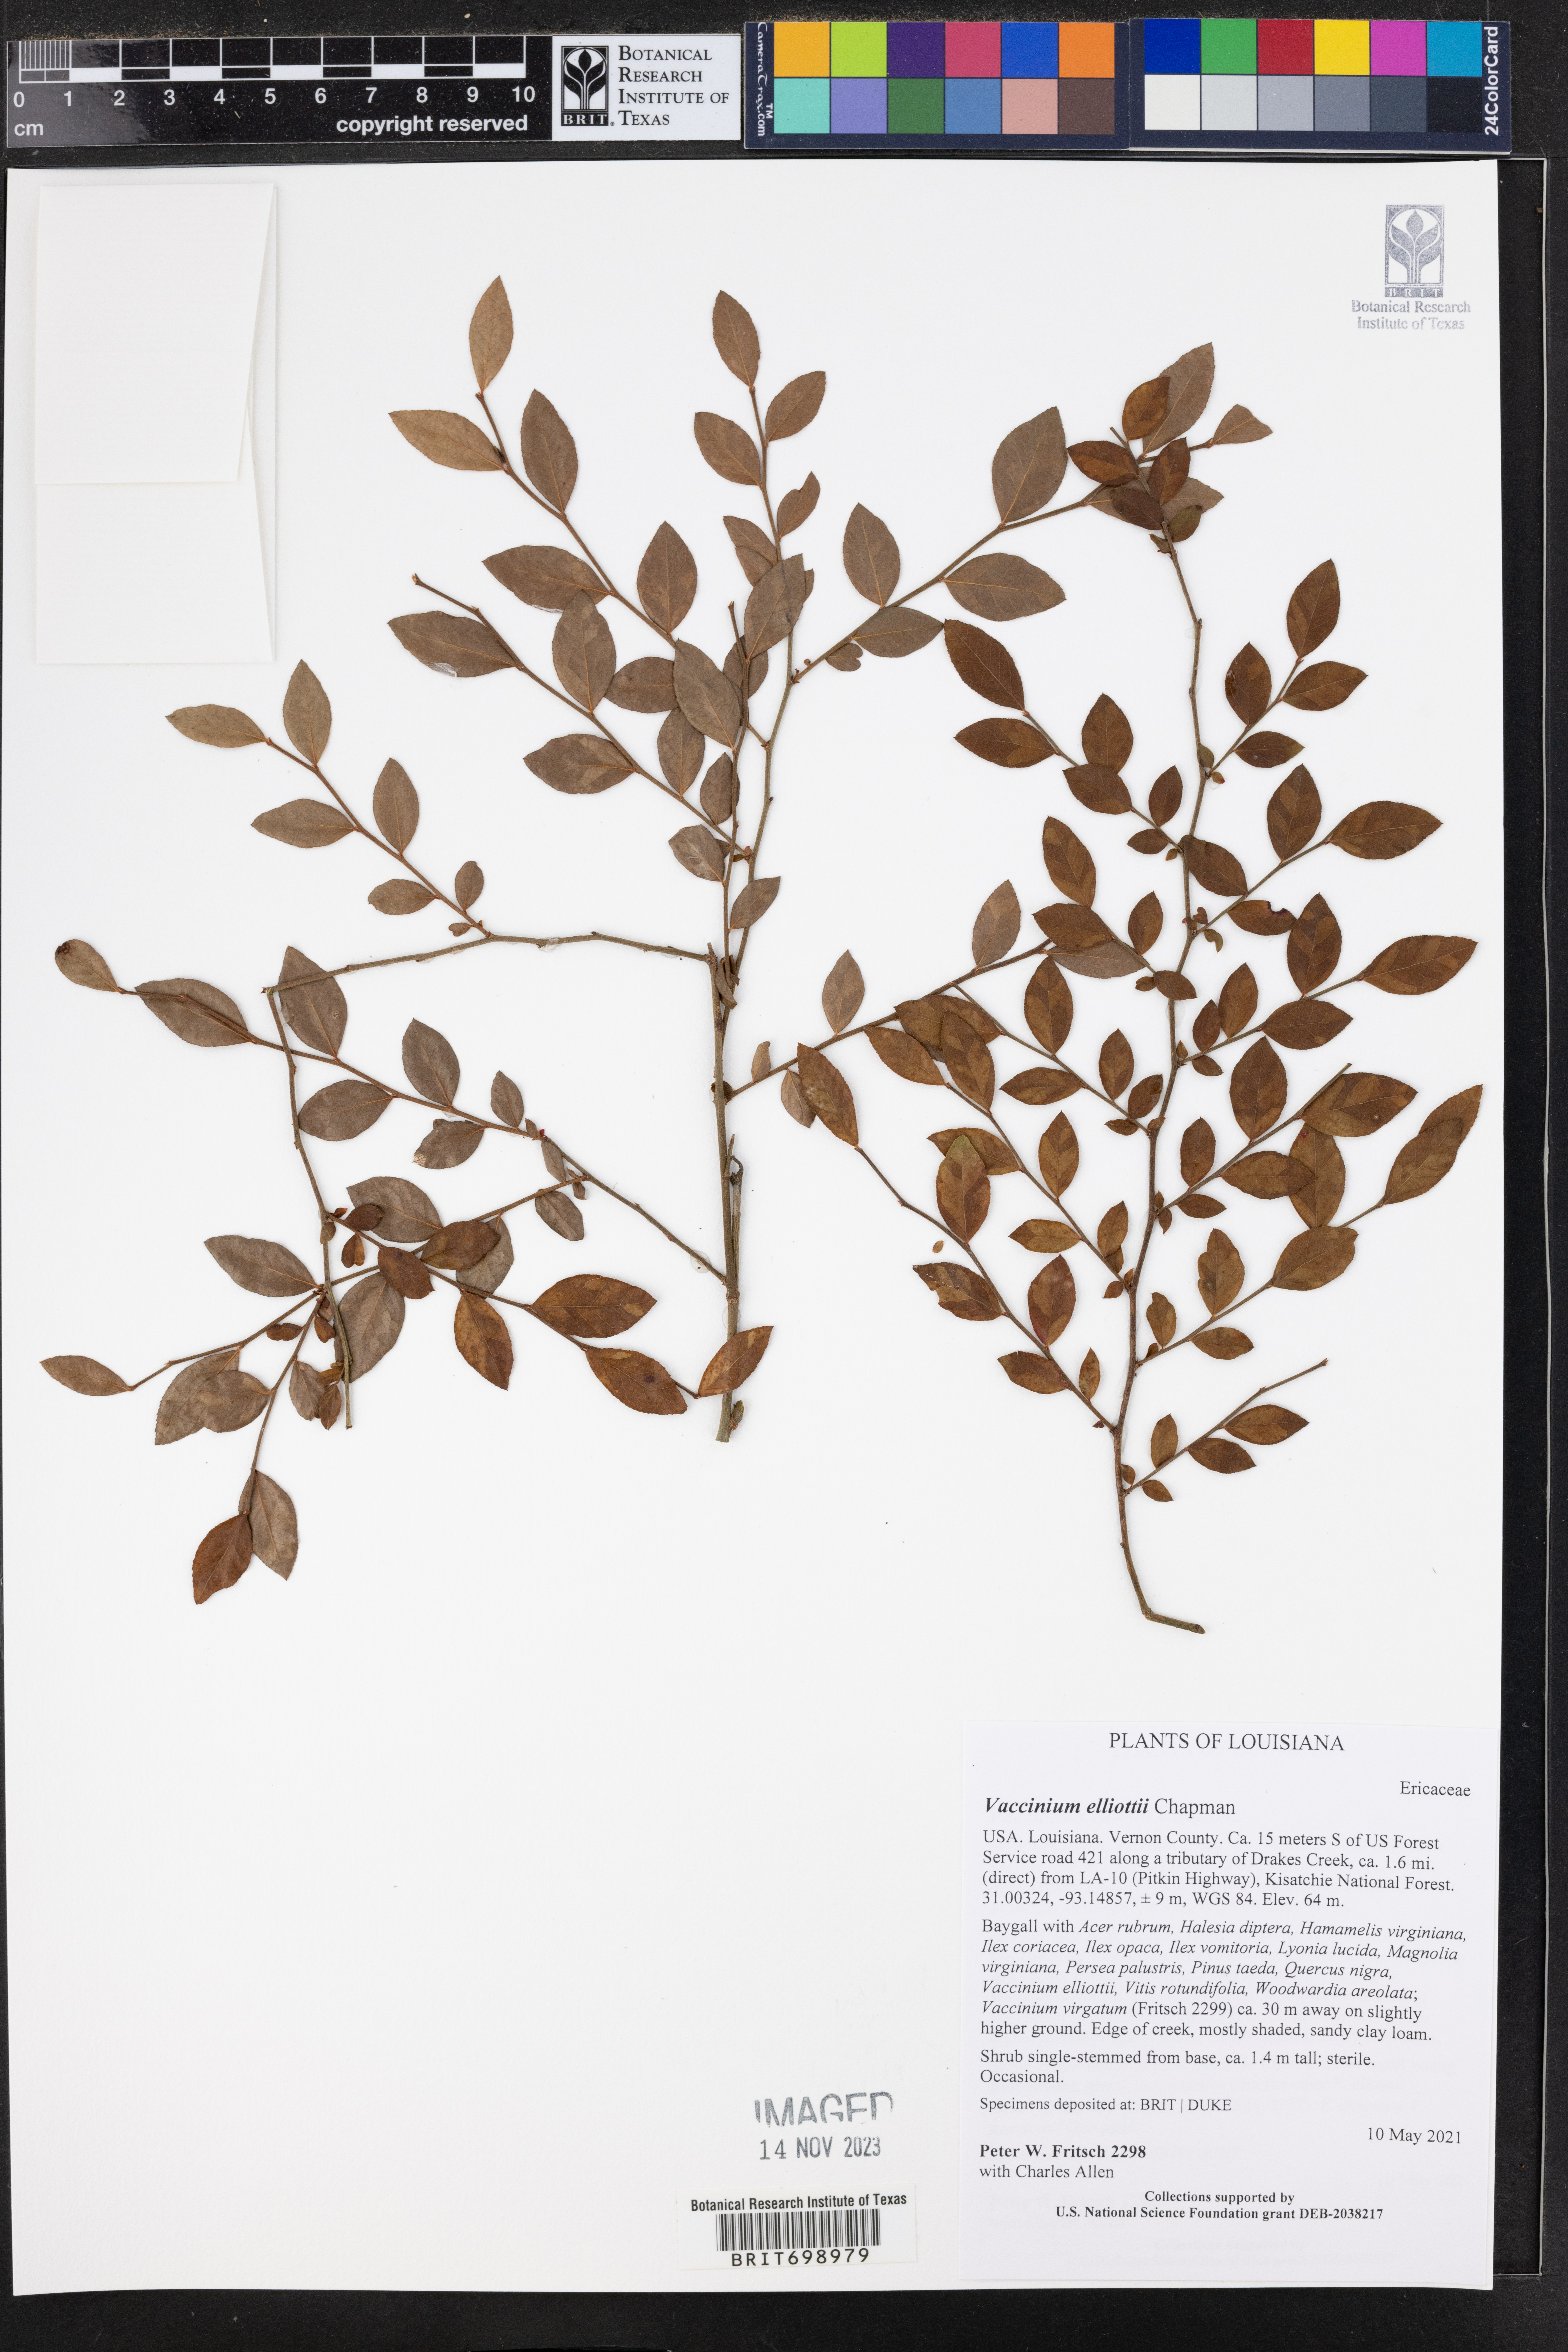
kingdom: Plantae
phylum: Tracheophyta
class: Magnoliopsida
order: Ericales
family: Ericaceae
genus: Vaccinium
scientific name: Vaccinium corymbosum
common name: Blueberry
